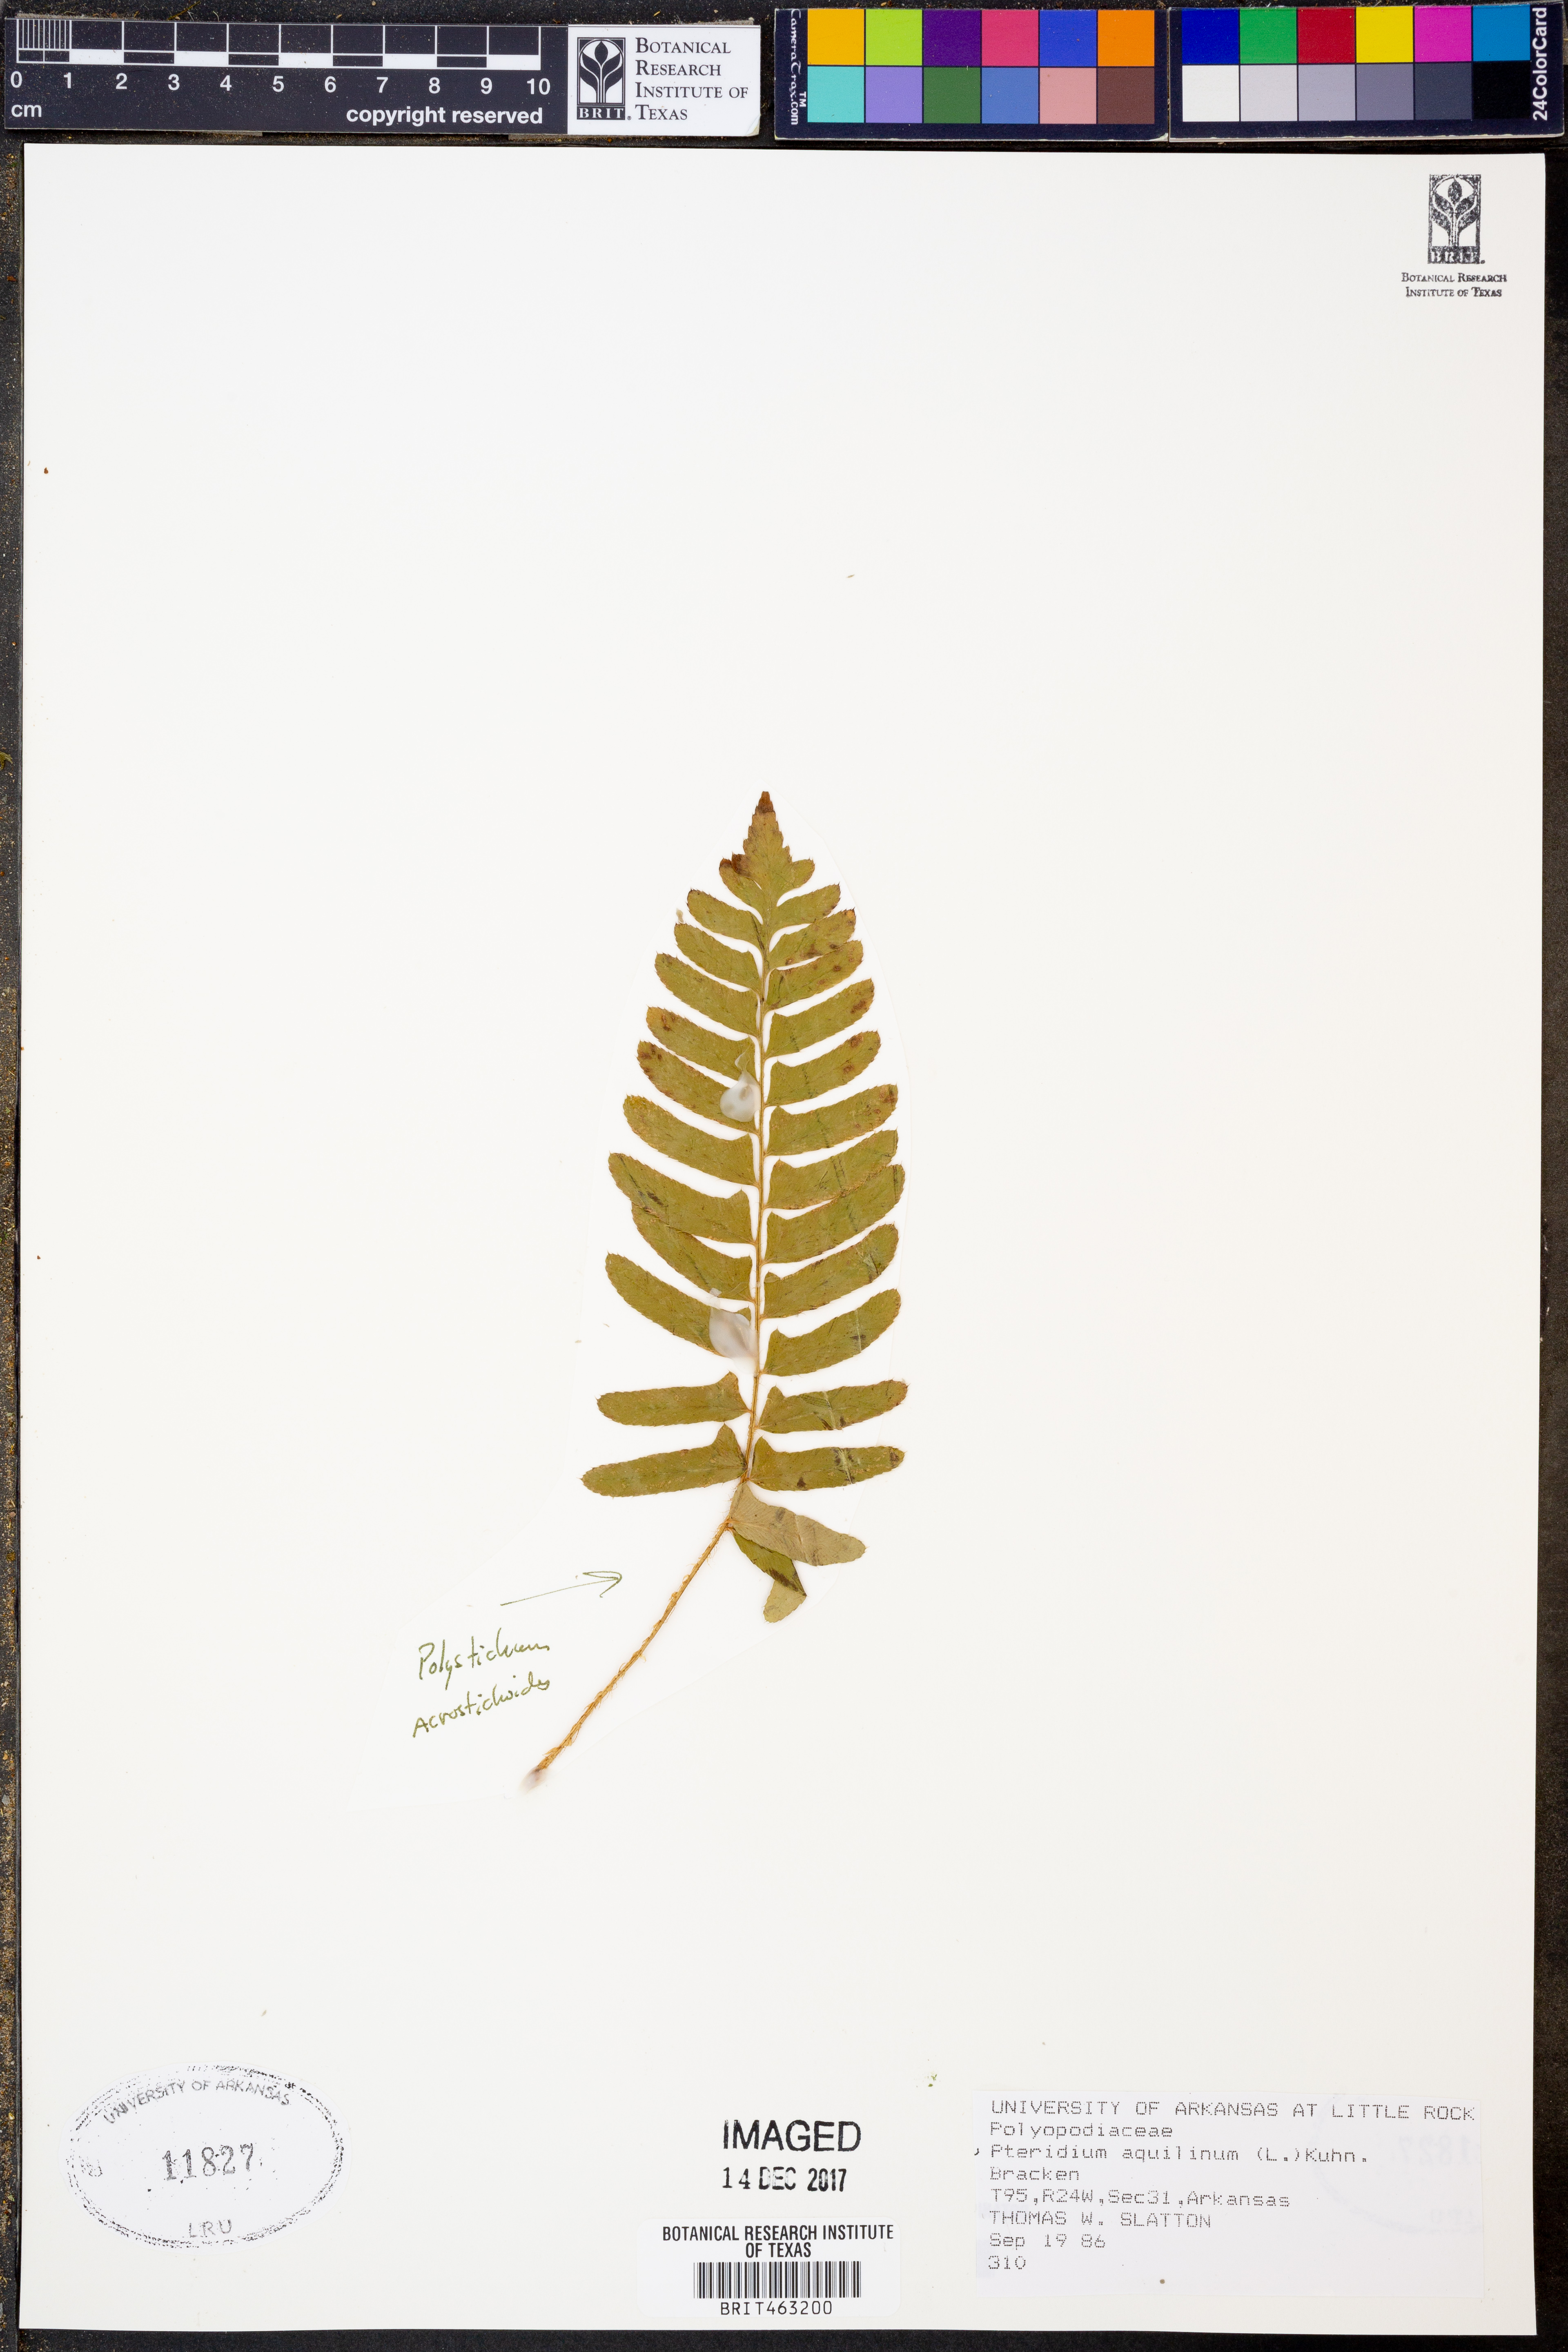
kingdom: Plantae
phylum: Tracheophyta
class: Polypodiopsida
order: Polypodiales
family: Dennstaedtiaceae
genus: Pteridium
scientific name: Pteridium aquilinum
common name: Bracken
